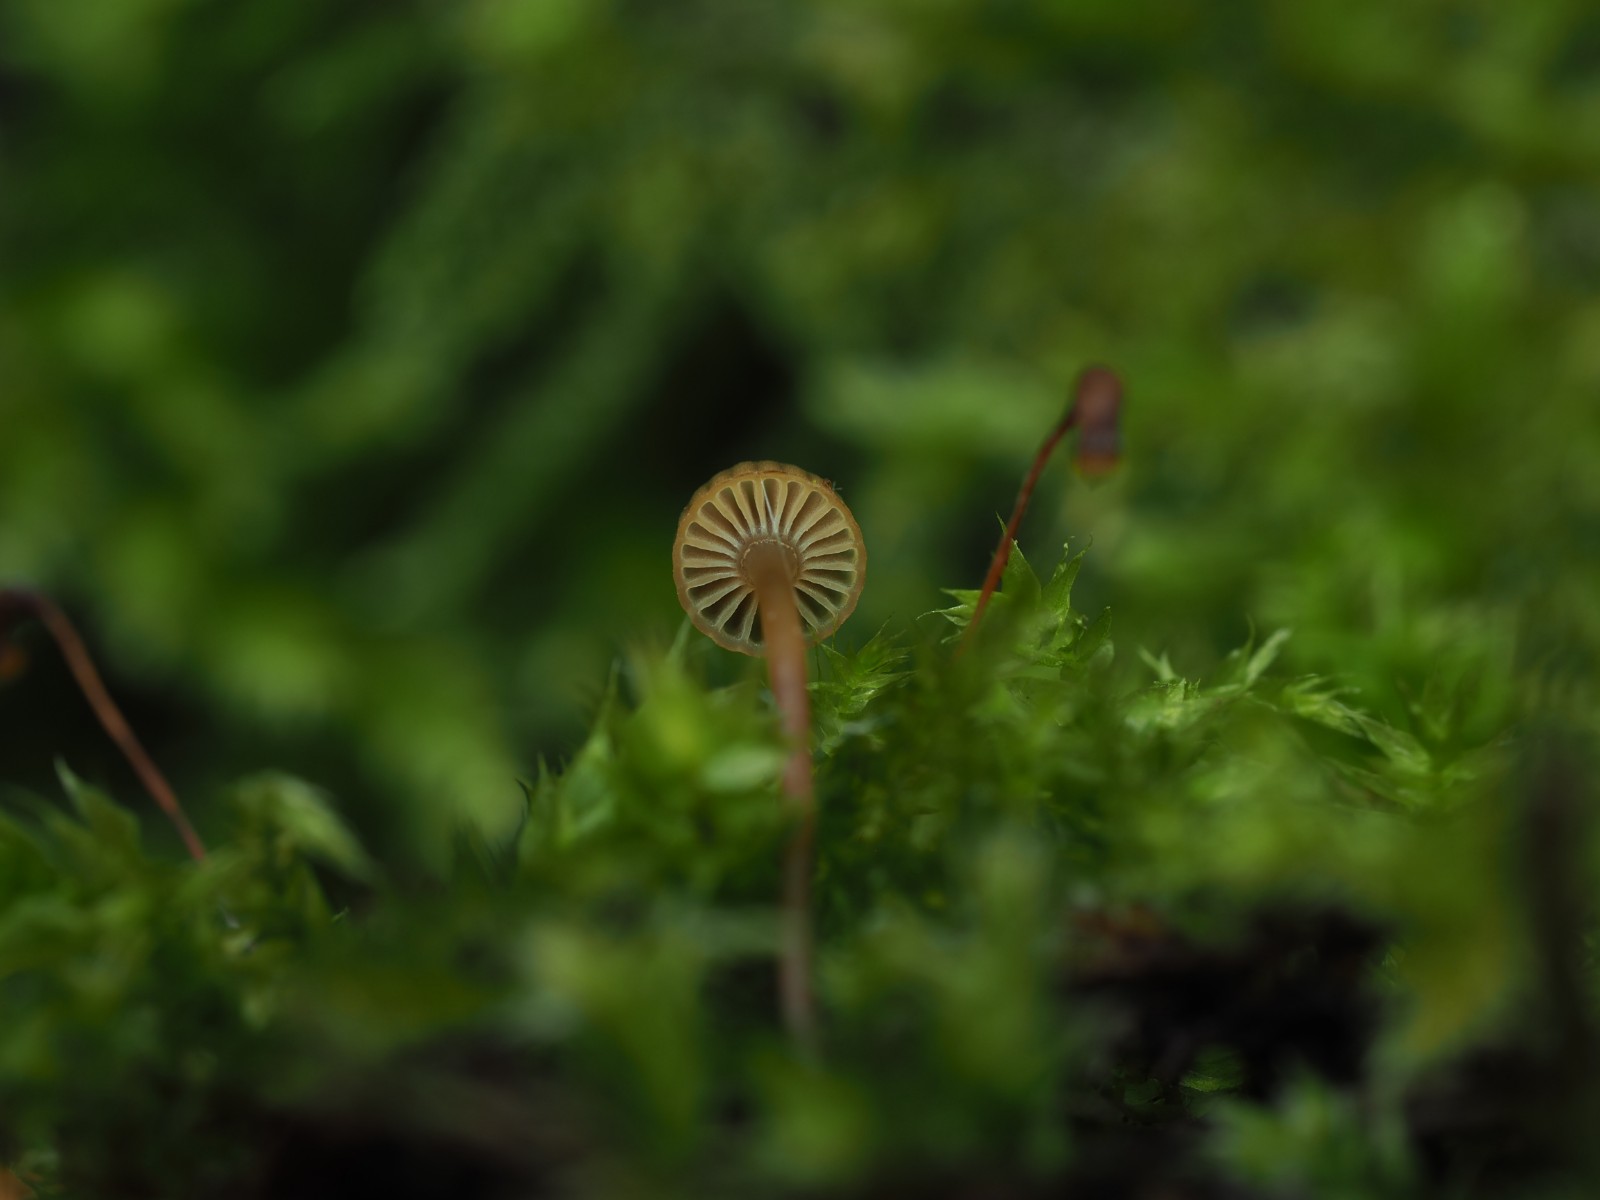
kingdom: Fungi
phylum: Basidiomycota
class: Agaricomycetes
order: Agaricales
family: Mycenaceae
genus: Mycena
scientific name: Mycena picta
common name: kantet huesvamp
